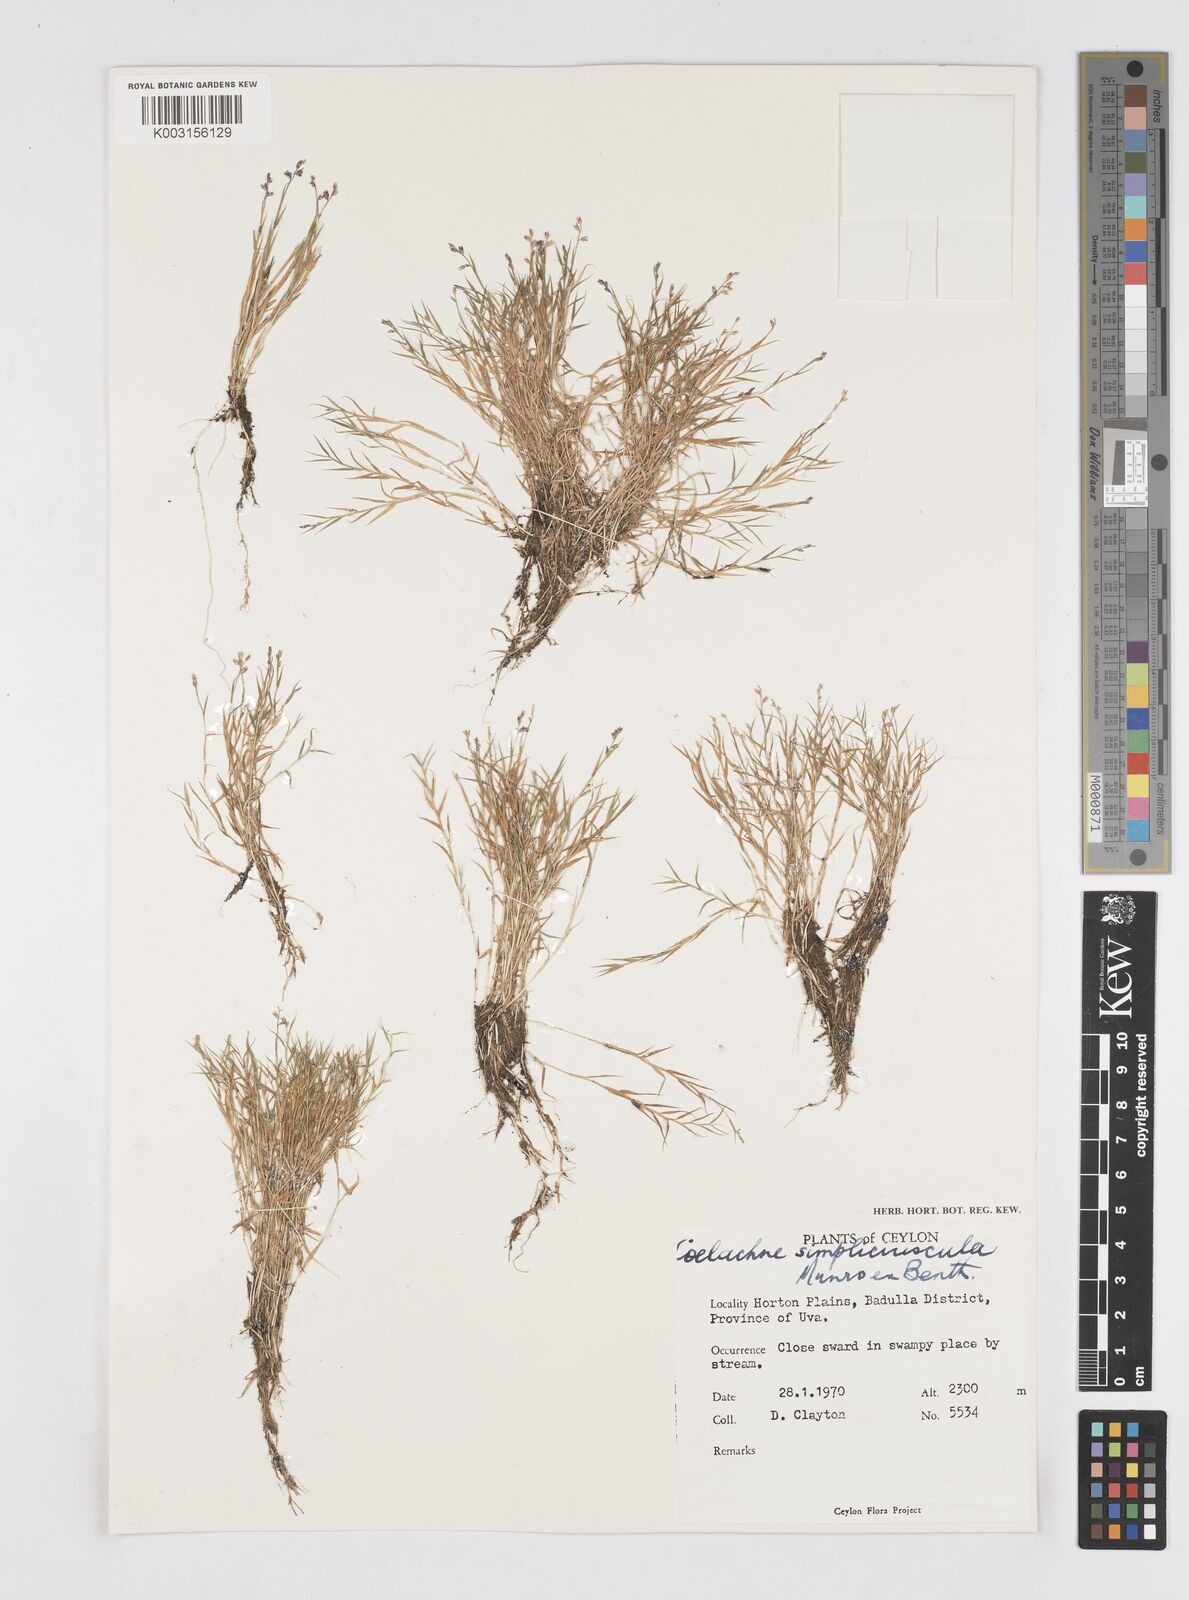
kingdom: Plantae
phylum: Tracheophyta
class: Liliopsida
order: Poales
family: Poaceae
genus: Coelachne
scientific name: Coelachne simpliciuscula
